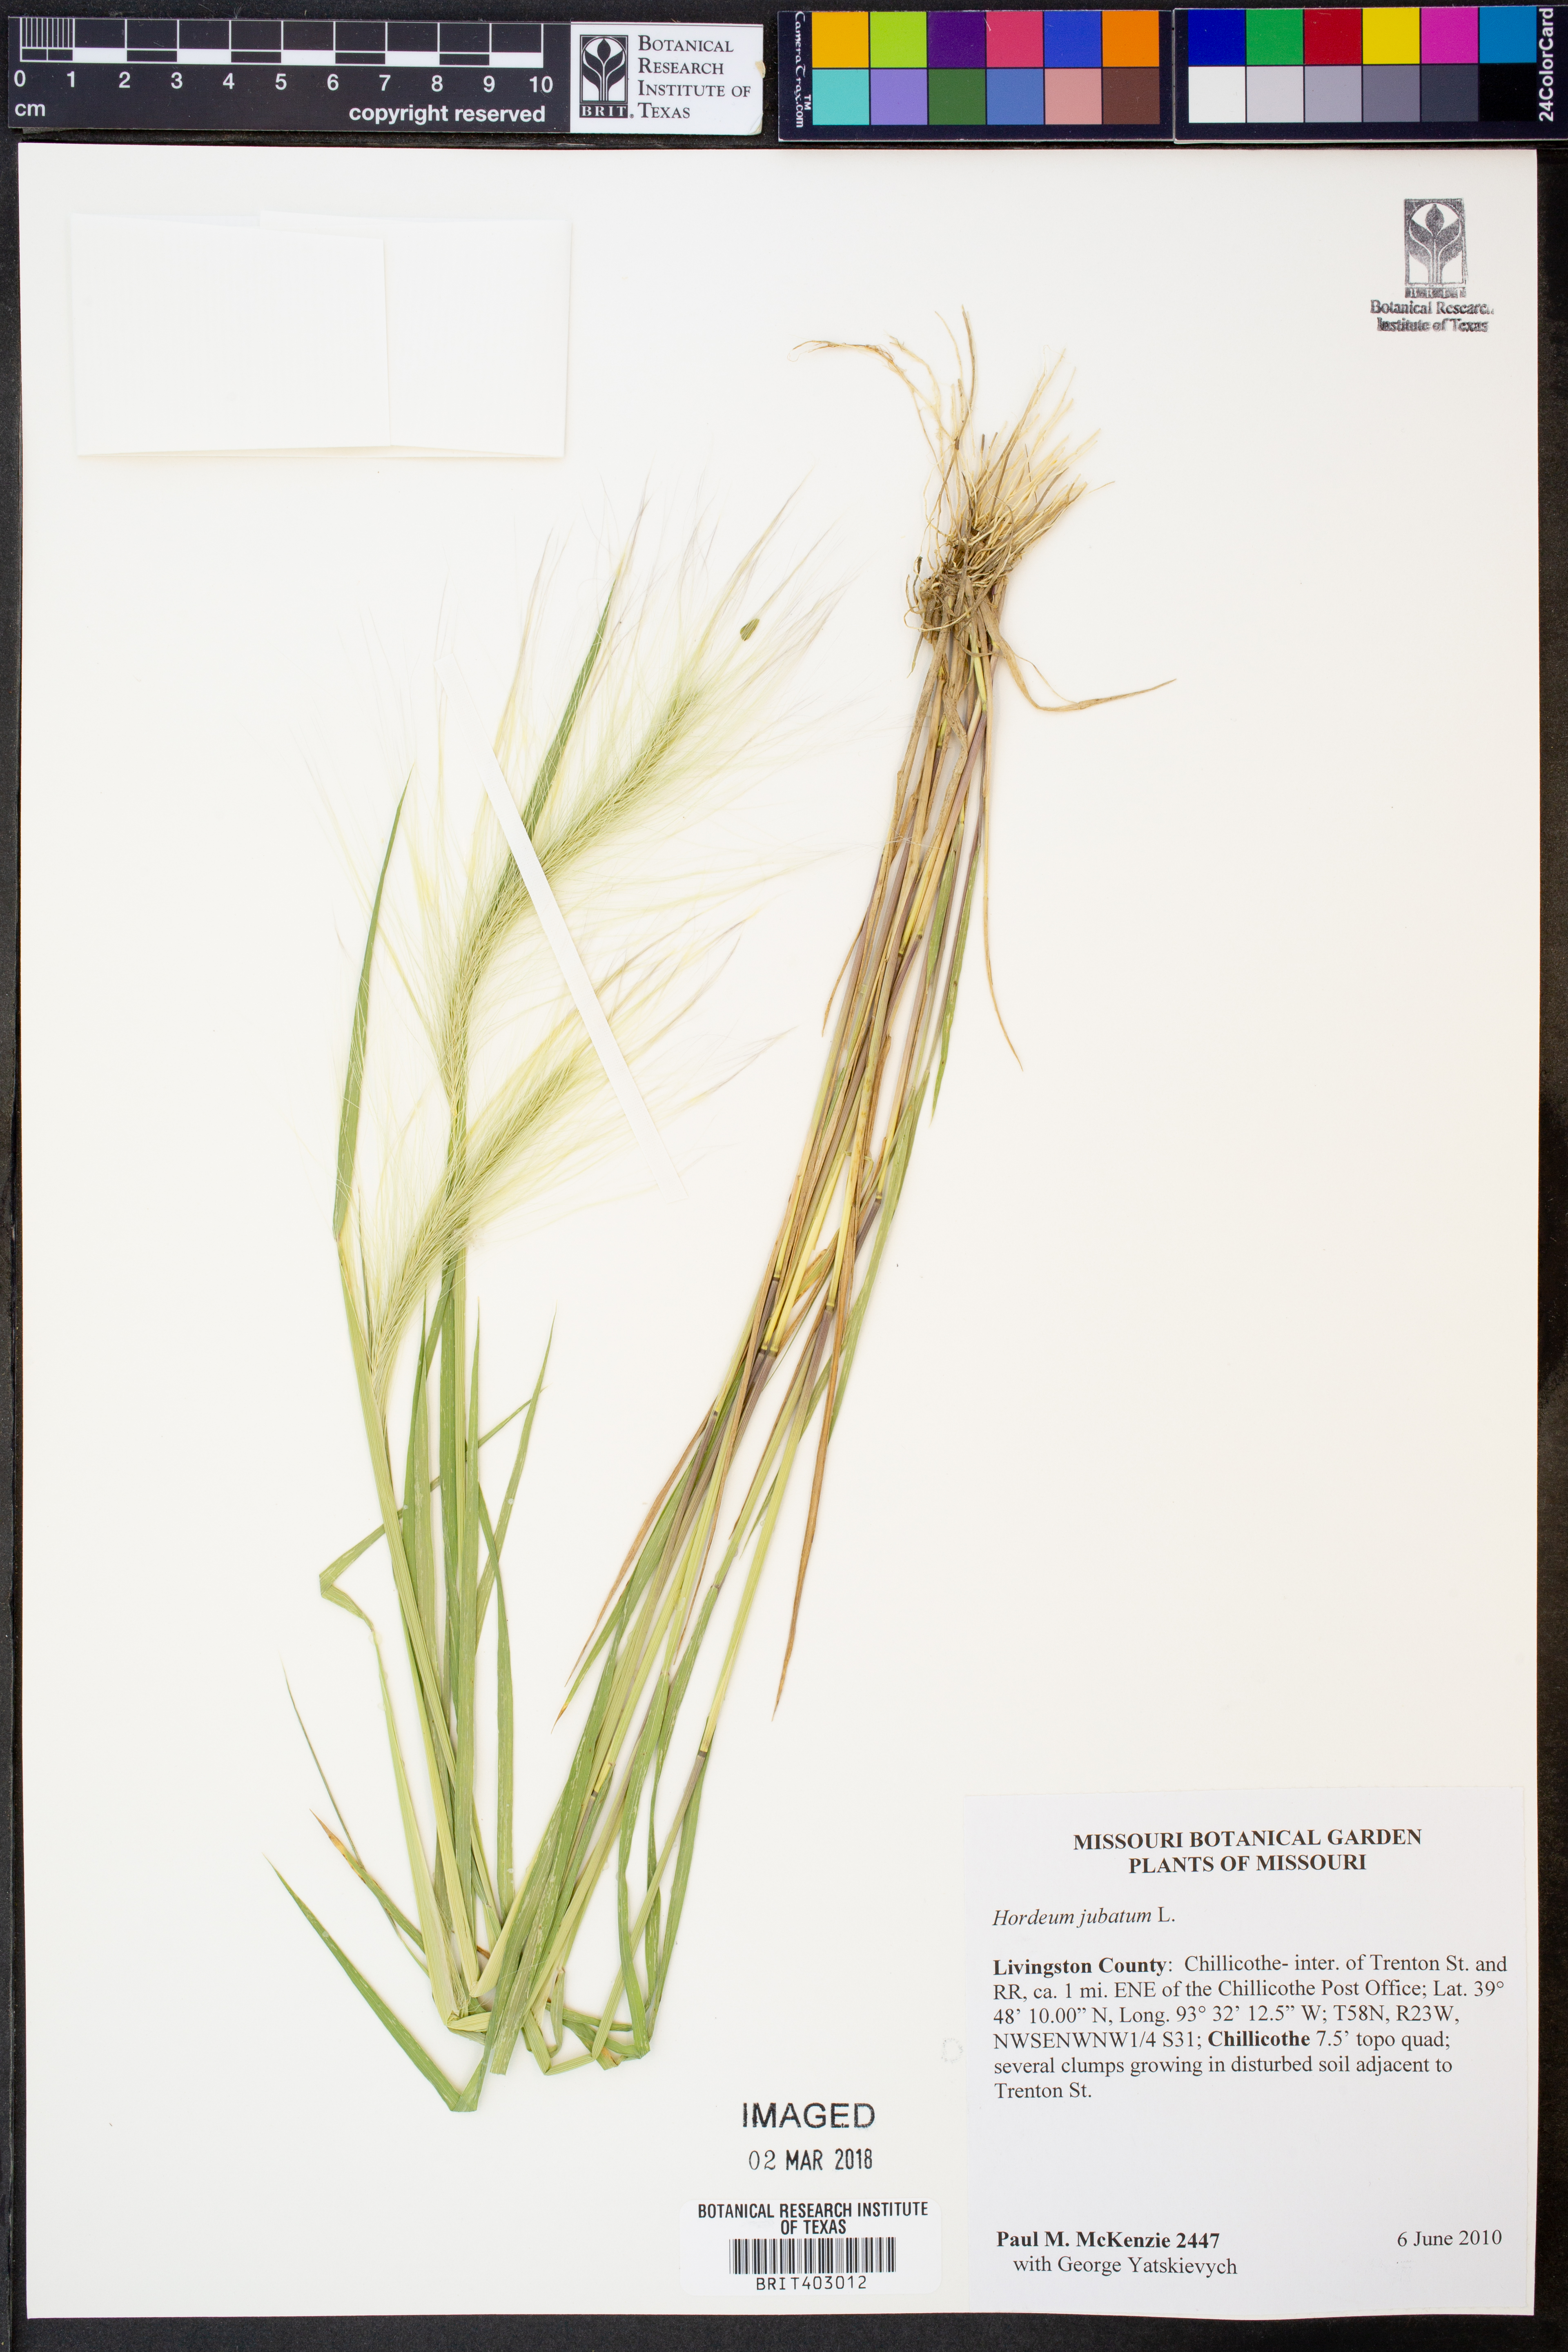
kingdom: Plantae
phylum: Tracheophyta
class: Liliopsida
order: Poales
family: Poaceae
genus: Hordeum
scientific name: Hordeum jubatum
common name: Foxtail barley
